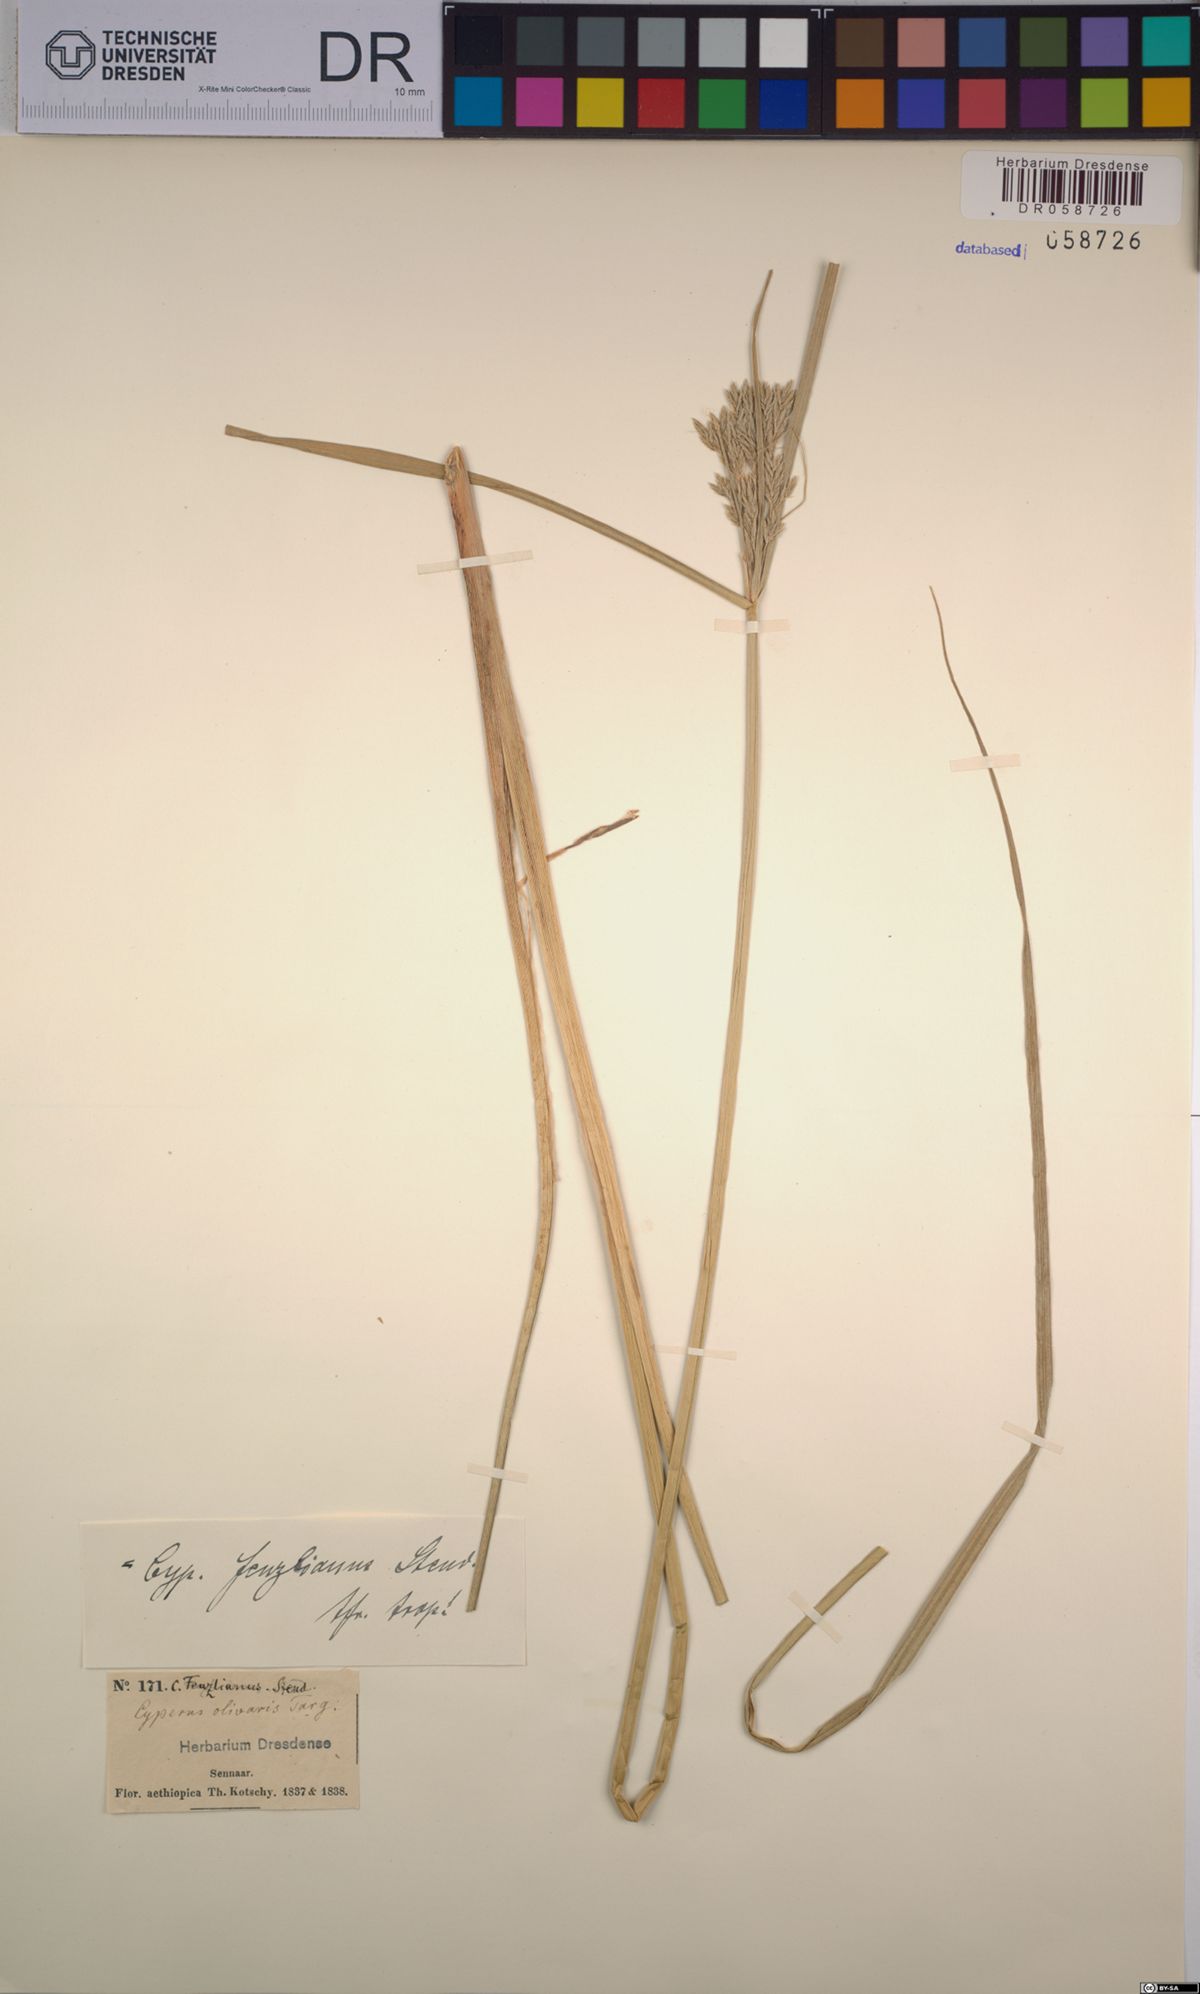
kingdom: Plantae
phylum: Tracheophyta
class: Liliopsida
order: Poales
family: Cyperaceae
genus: Cyperus
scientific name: Cyperus longus
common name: Galingale
